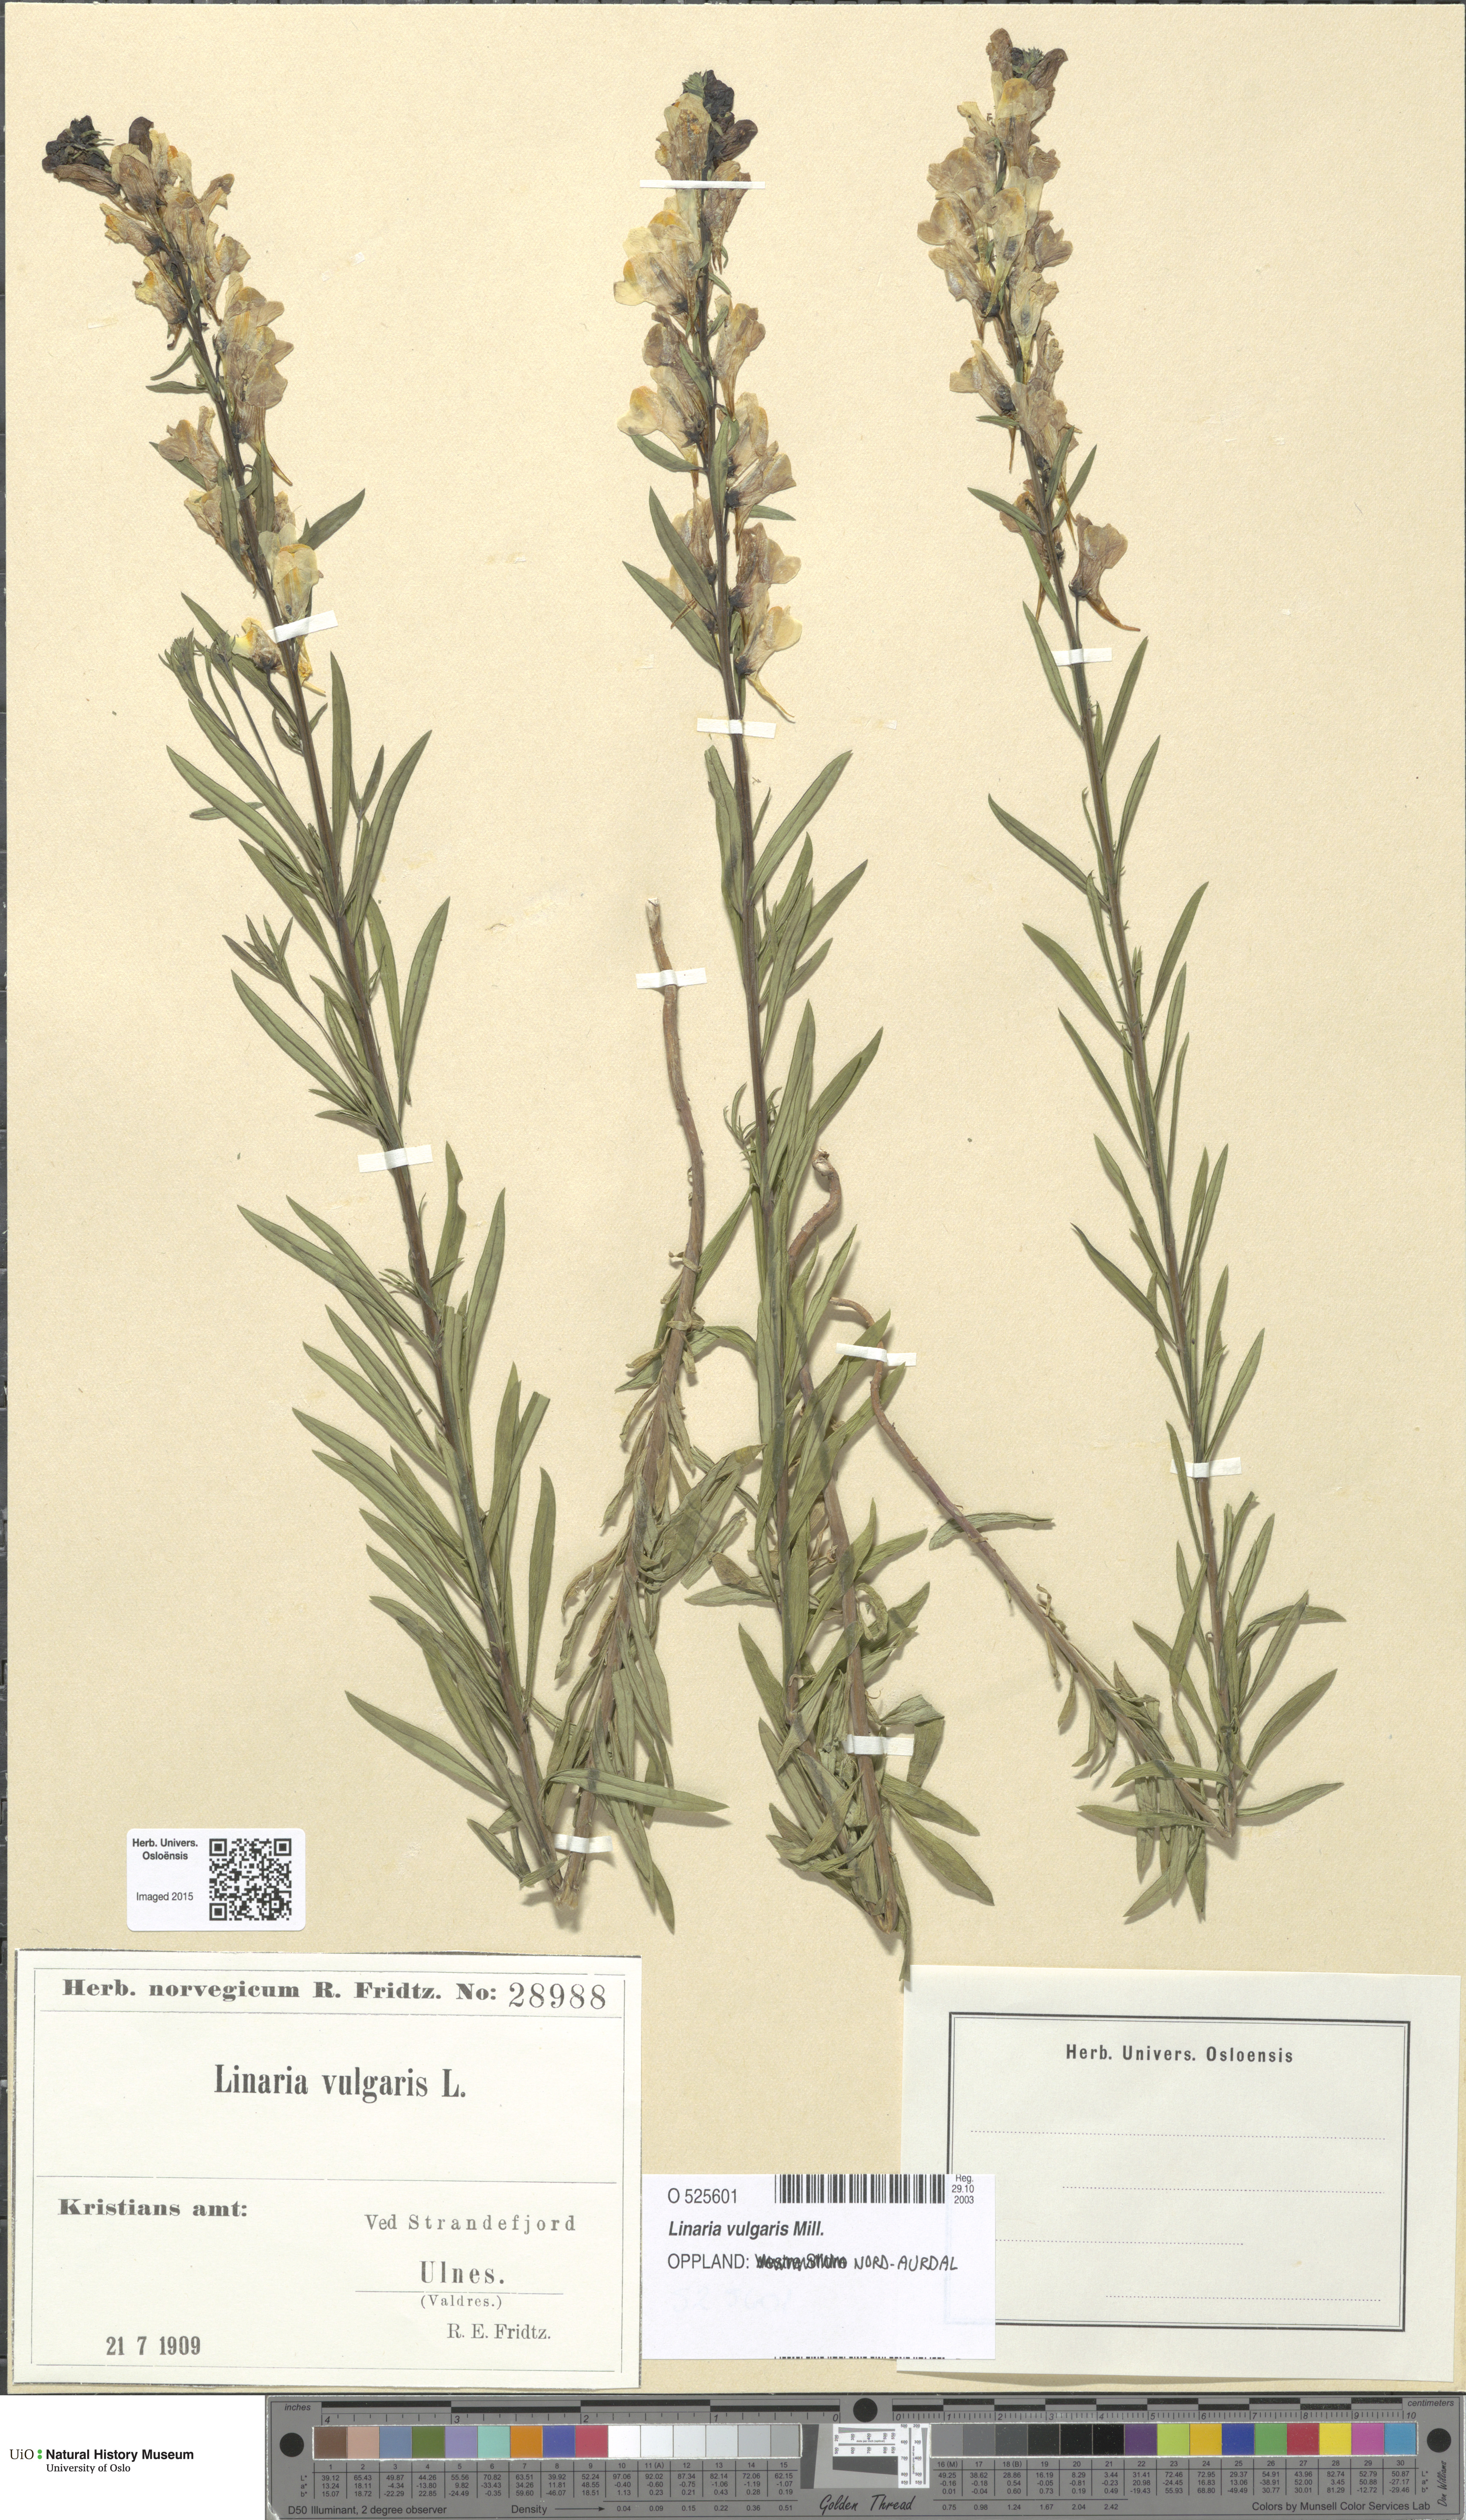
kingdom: Plantae
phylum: Tracheophyta
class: Magnoliopsida
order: Lamiales
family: Plantaginaceae
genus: Linaria
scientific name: Linaria vulgaris
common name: Butter and eggs
